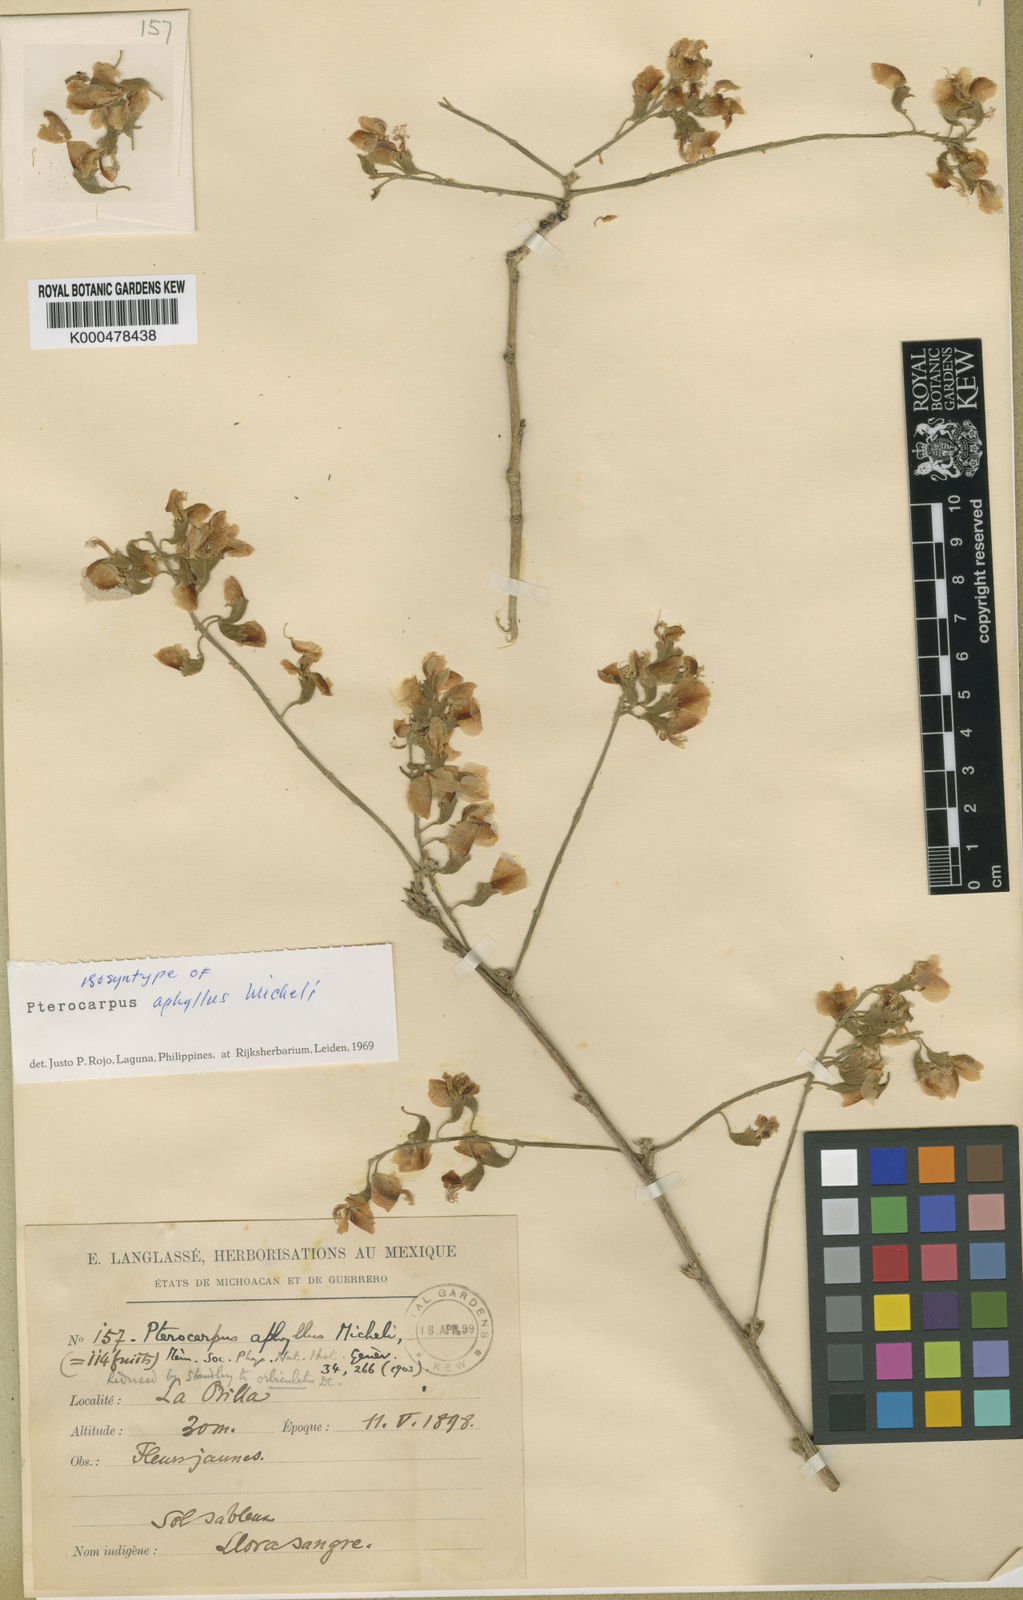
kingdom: Plantae
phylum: Tracheophyta
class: Magnoliopsida
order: Fabales
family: Fabaceae
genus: Pterocarpus
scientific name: Pterocarpus orbiculatus
